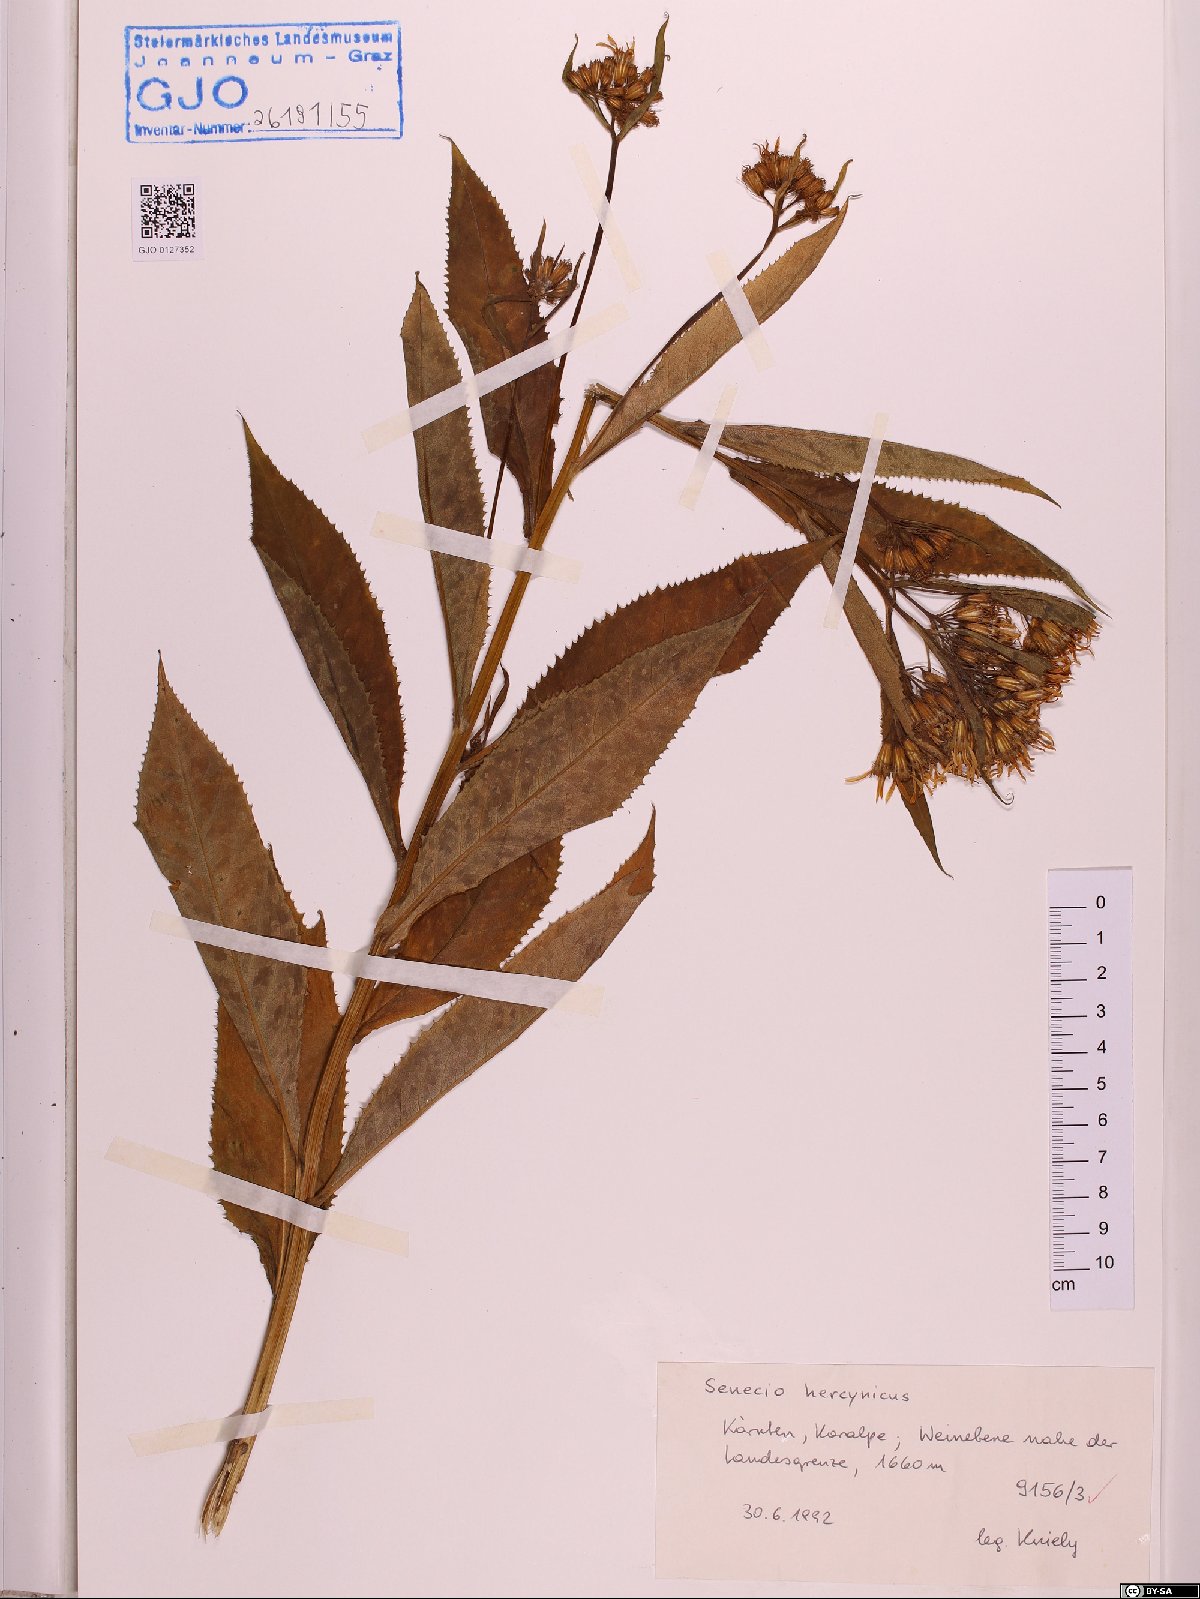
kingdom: Plantae
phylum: Tracheophyta
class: Magnoliopsida
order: Asterales
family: Asteraceae
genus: Senecio
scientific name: Senecio hercynicus
